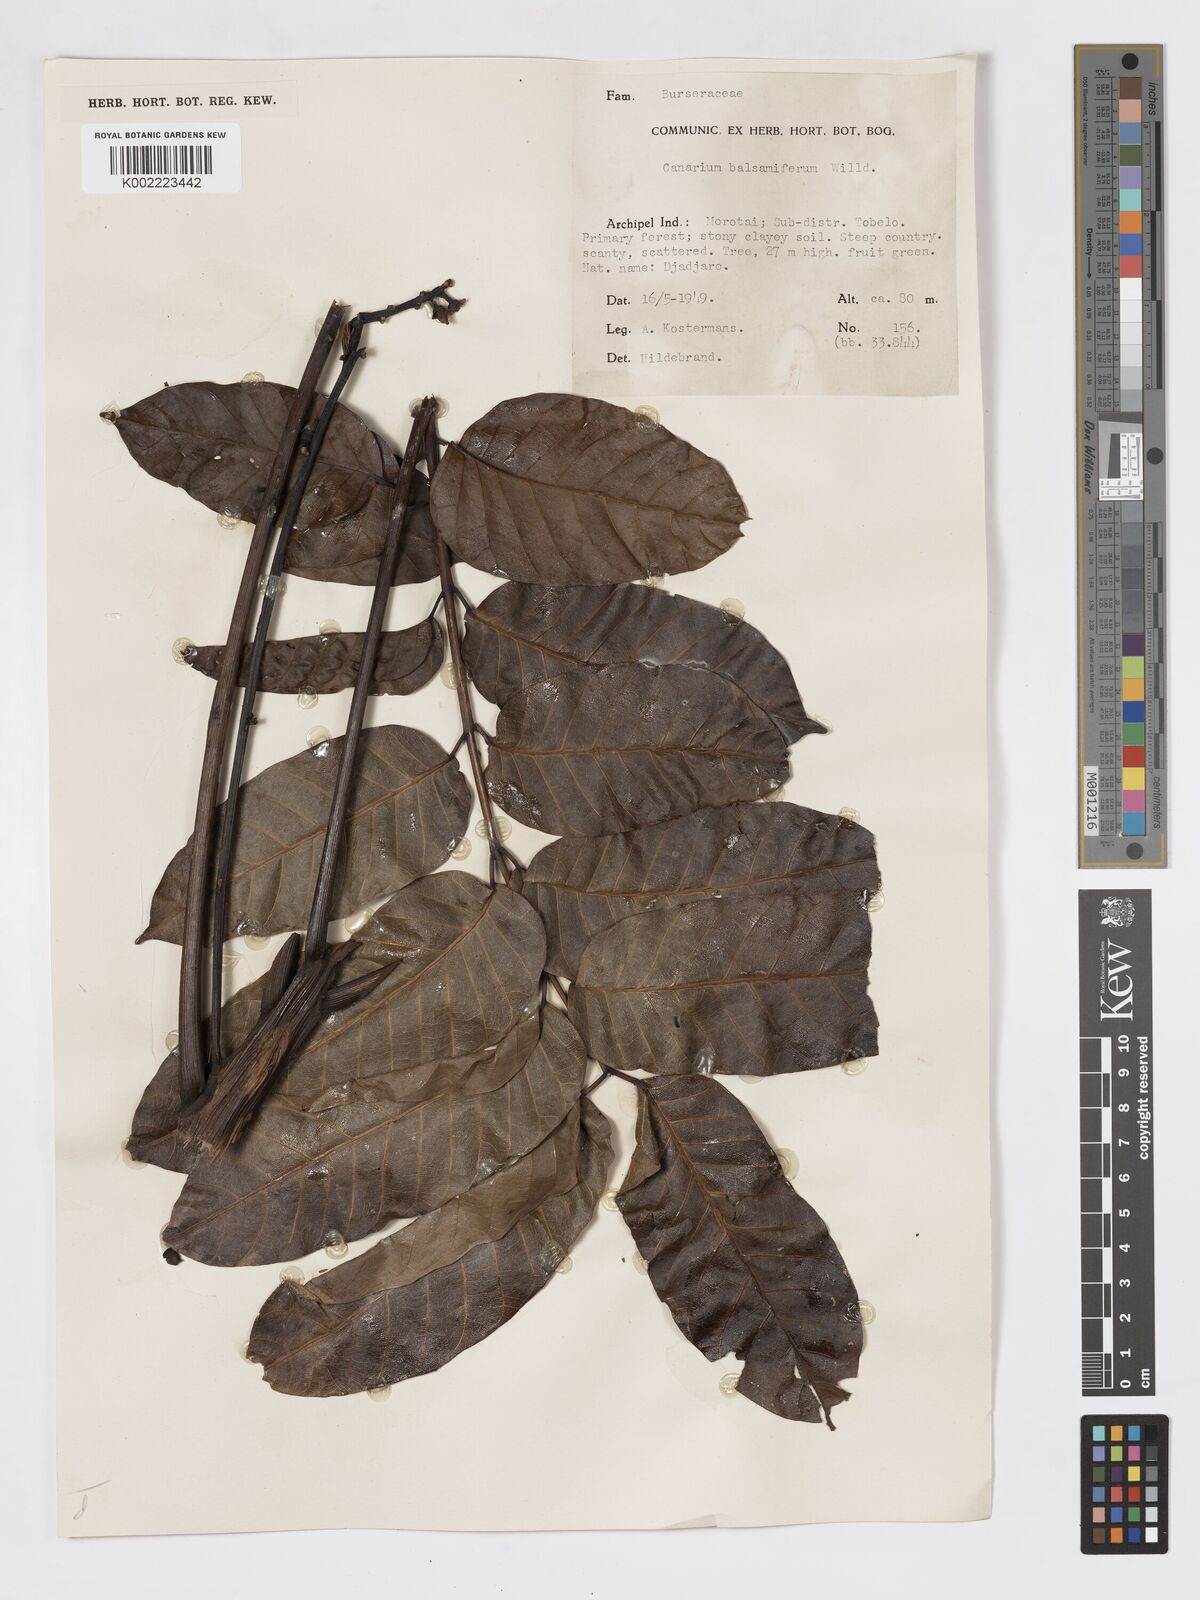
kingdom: Plantae
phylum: Tracheophyta
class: Magnoliopsida
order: Sapindales
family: Burseraceae
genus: Canarium
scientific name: Canarium
